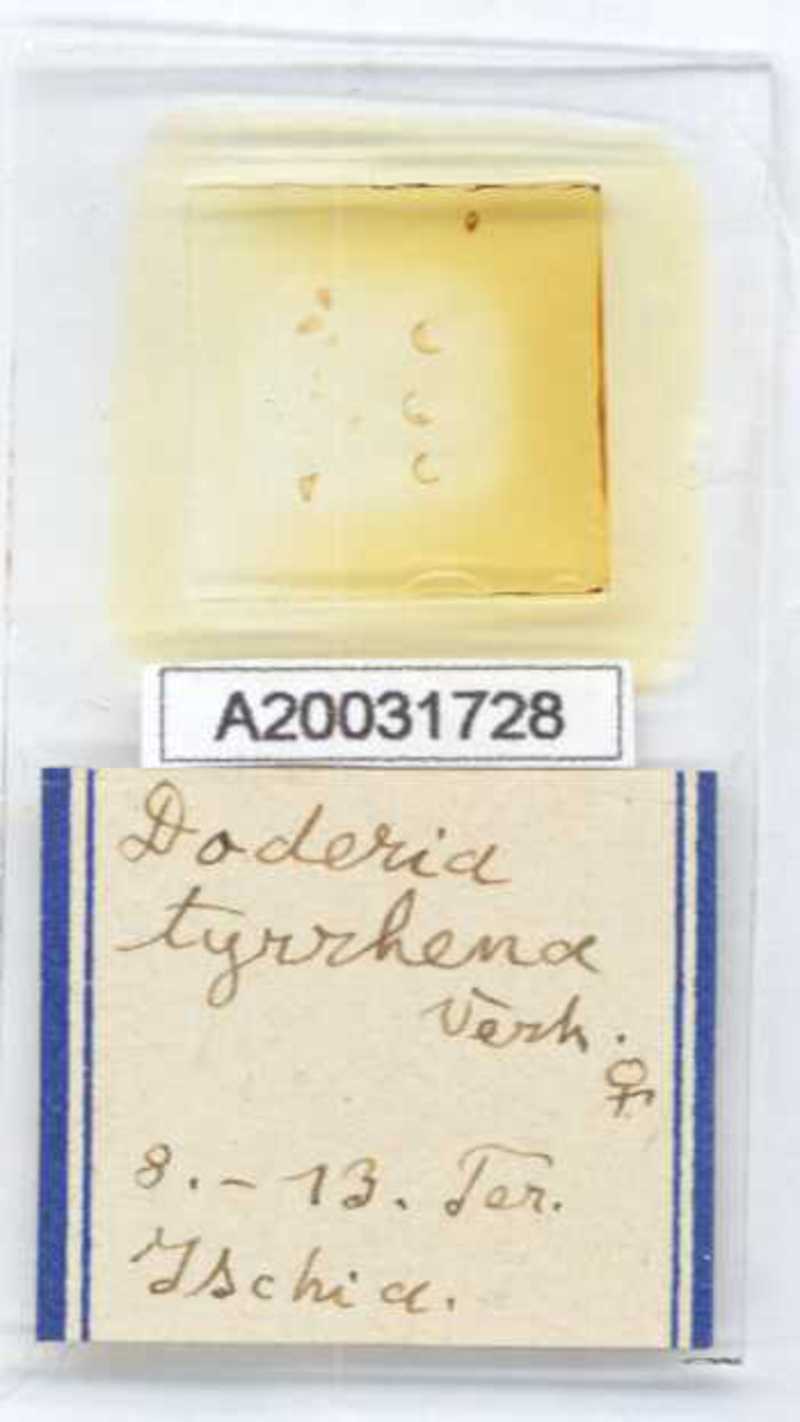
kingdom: Animalia
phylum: Arthropoda
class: Diplopoda
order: Glomerida
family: Glomeridae
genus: Doderia
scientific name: Doderia tyrrhena
